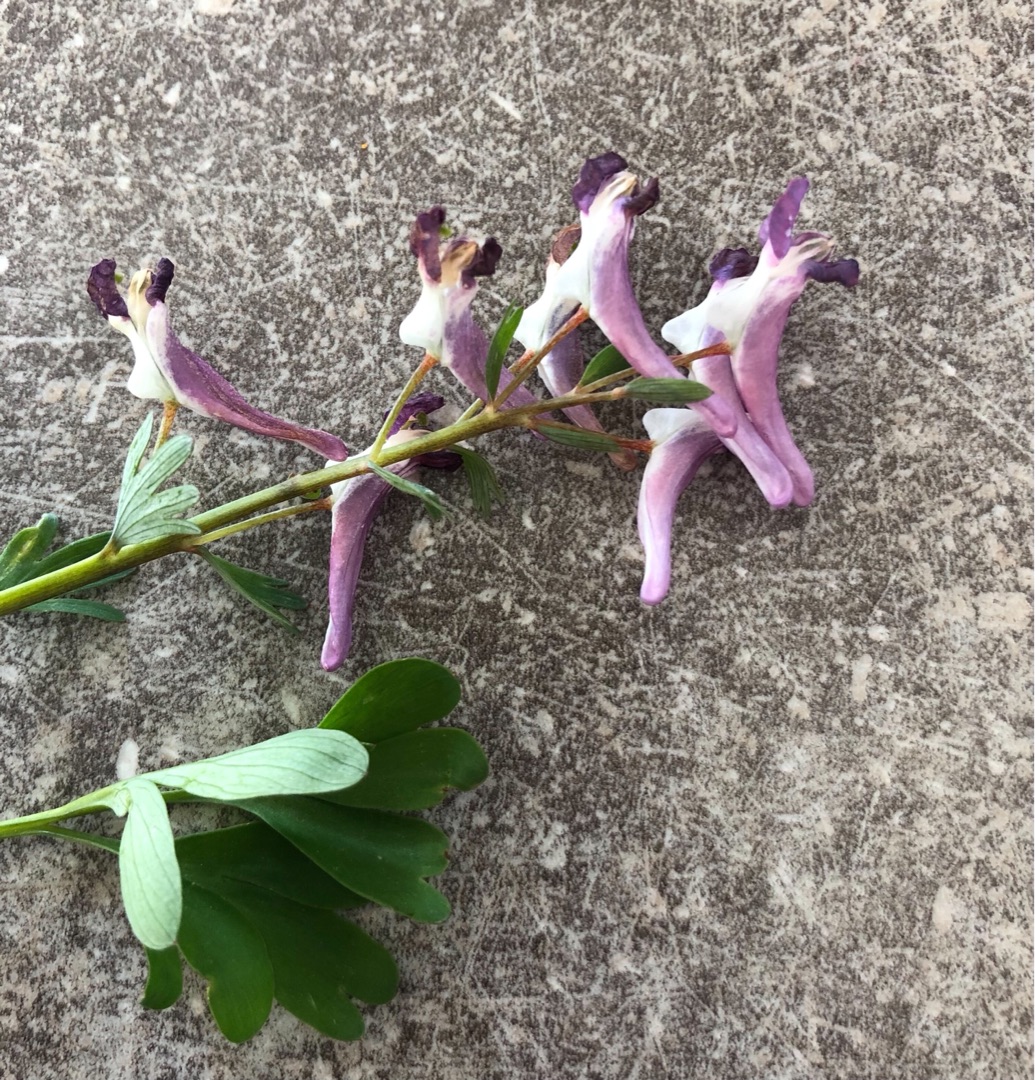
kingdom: Plantae
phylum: Tracheophyta
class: Magnoliopsida
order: Ranunculales
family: Papaveraceae
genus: Corydalis
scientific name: Corydalis solida
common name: Langstilket lærkespore
